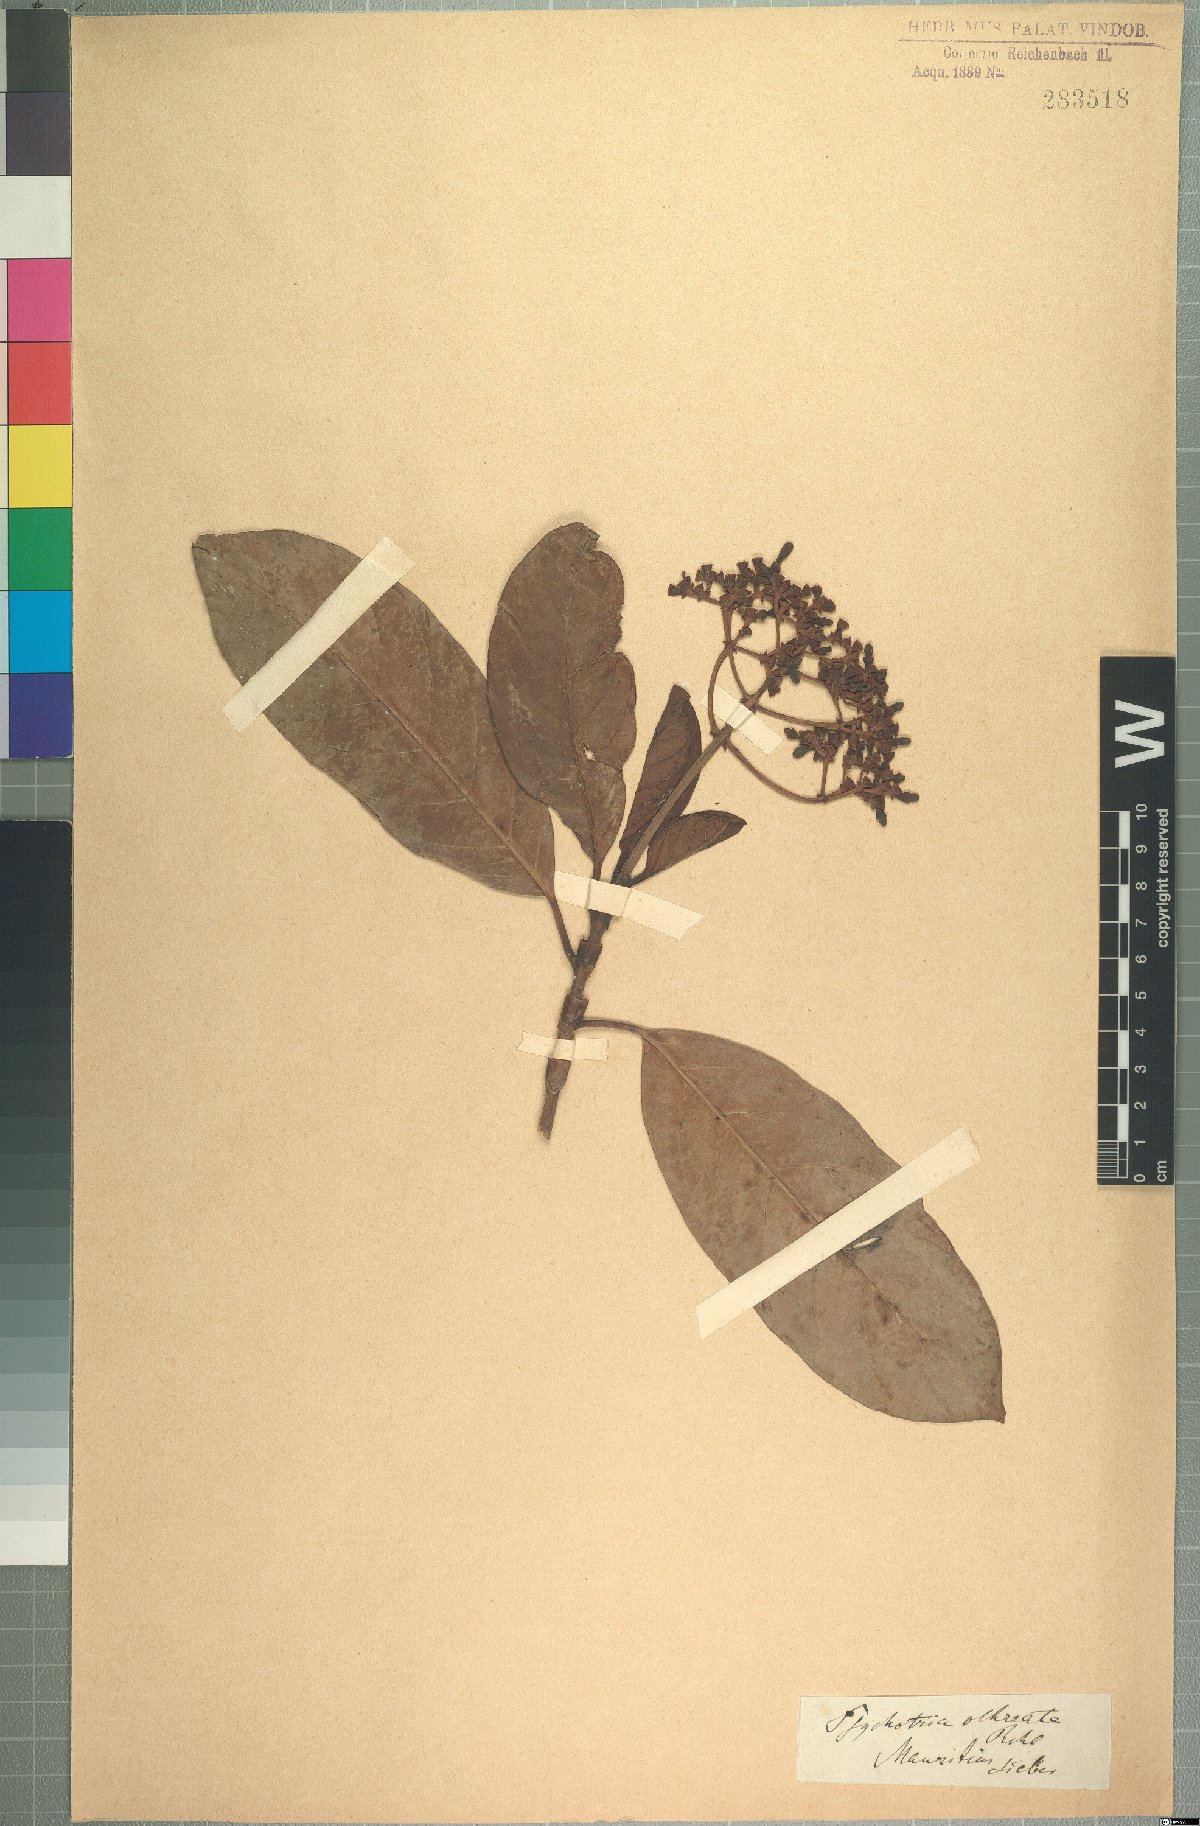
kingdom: Plantae
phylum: Tracheophyta
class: Magnoliopsida
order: Gentianales
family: Rubiaceae
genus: Gaertnera
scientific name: Gaertnera psychotrioides
